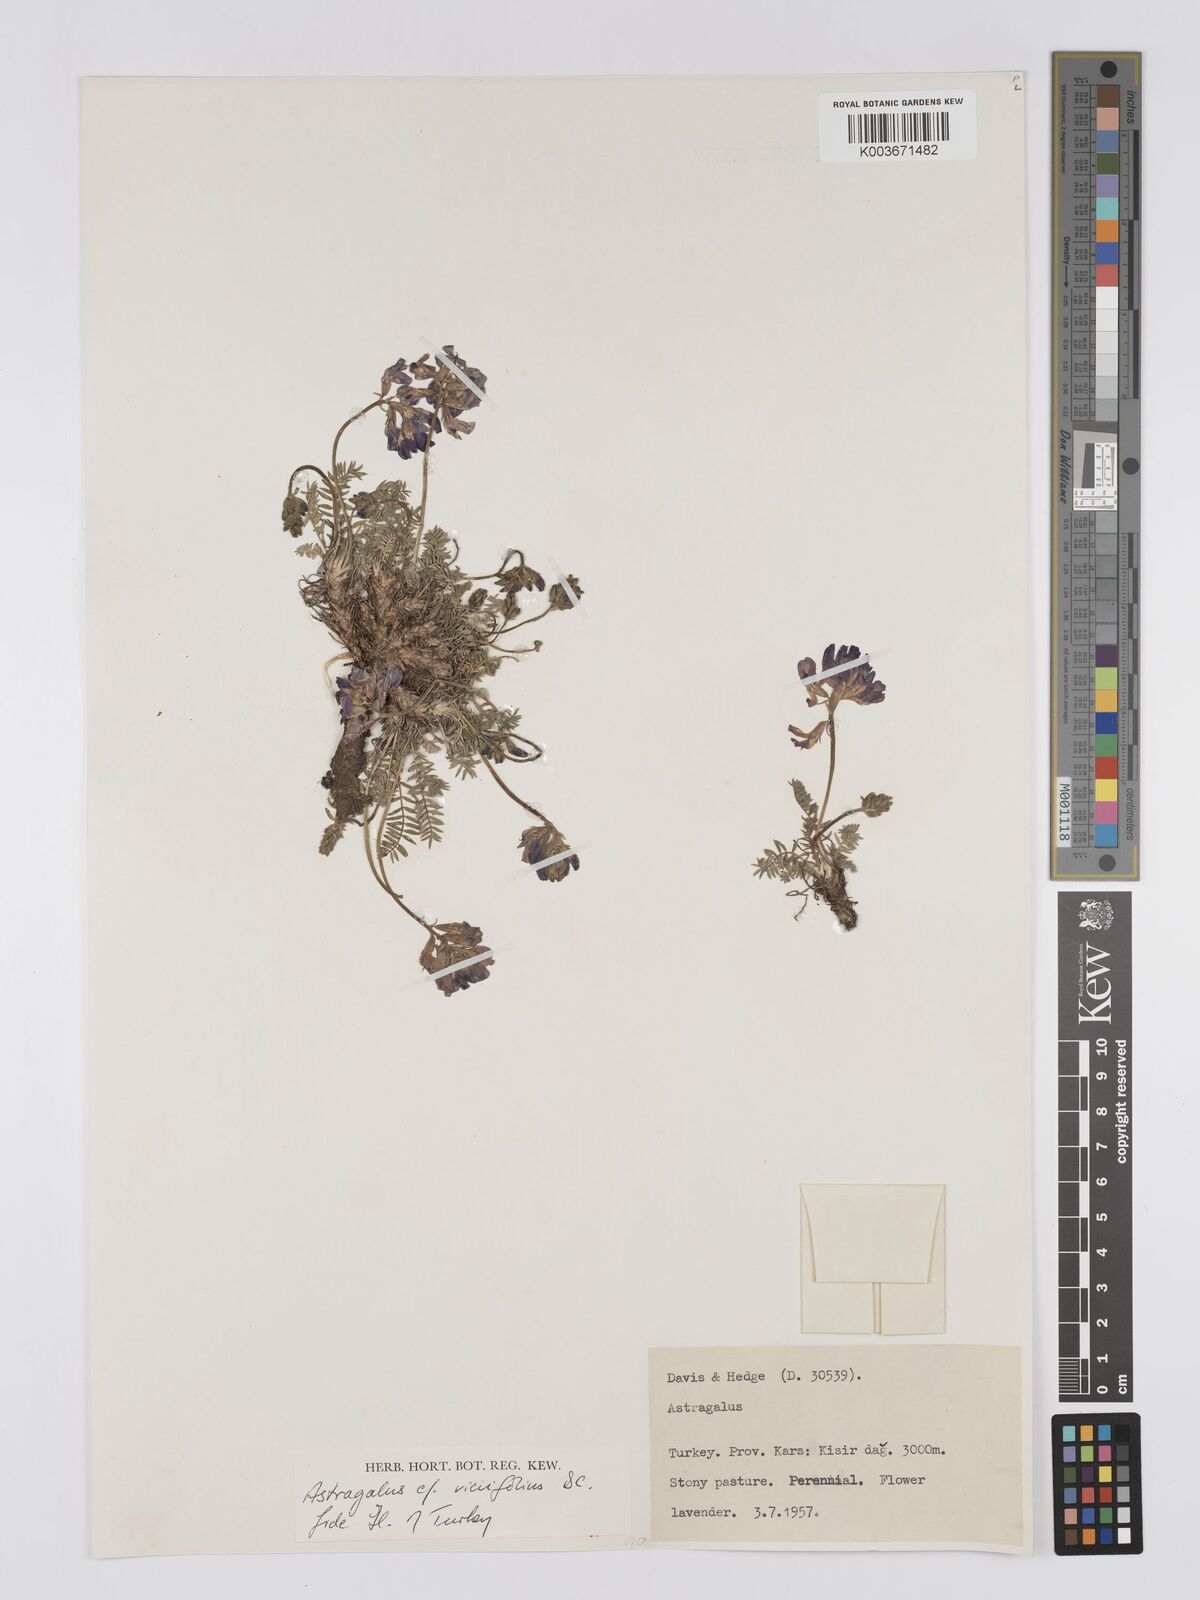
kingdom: Plantae
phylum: Tracheophyta
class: Magnoliopsida
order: Fabales
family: Fabaceae
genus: Astragalus
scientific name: Astragalus humifusus
